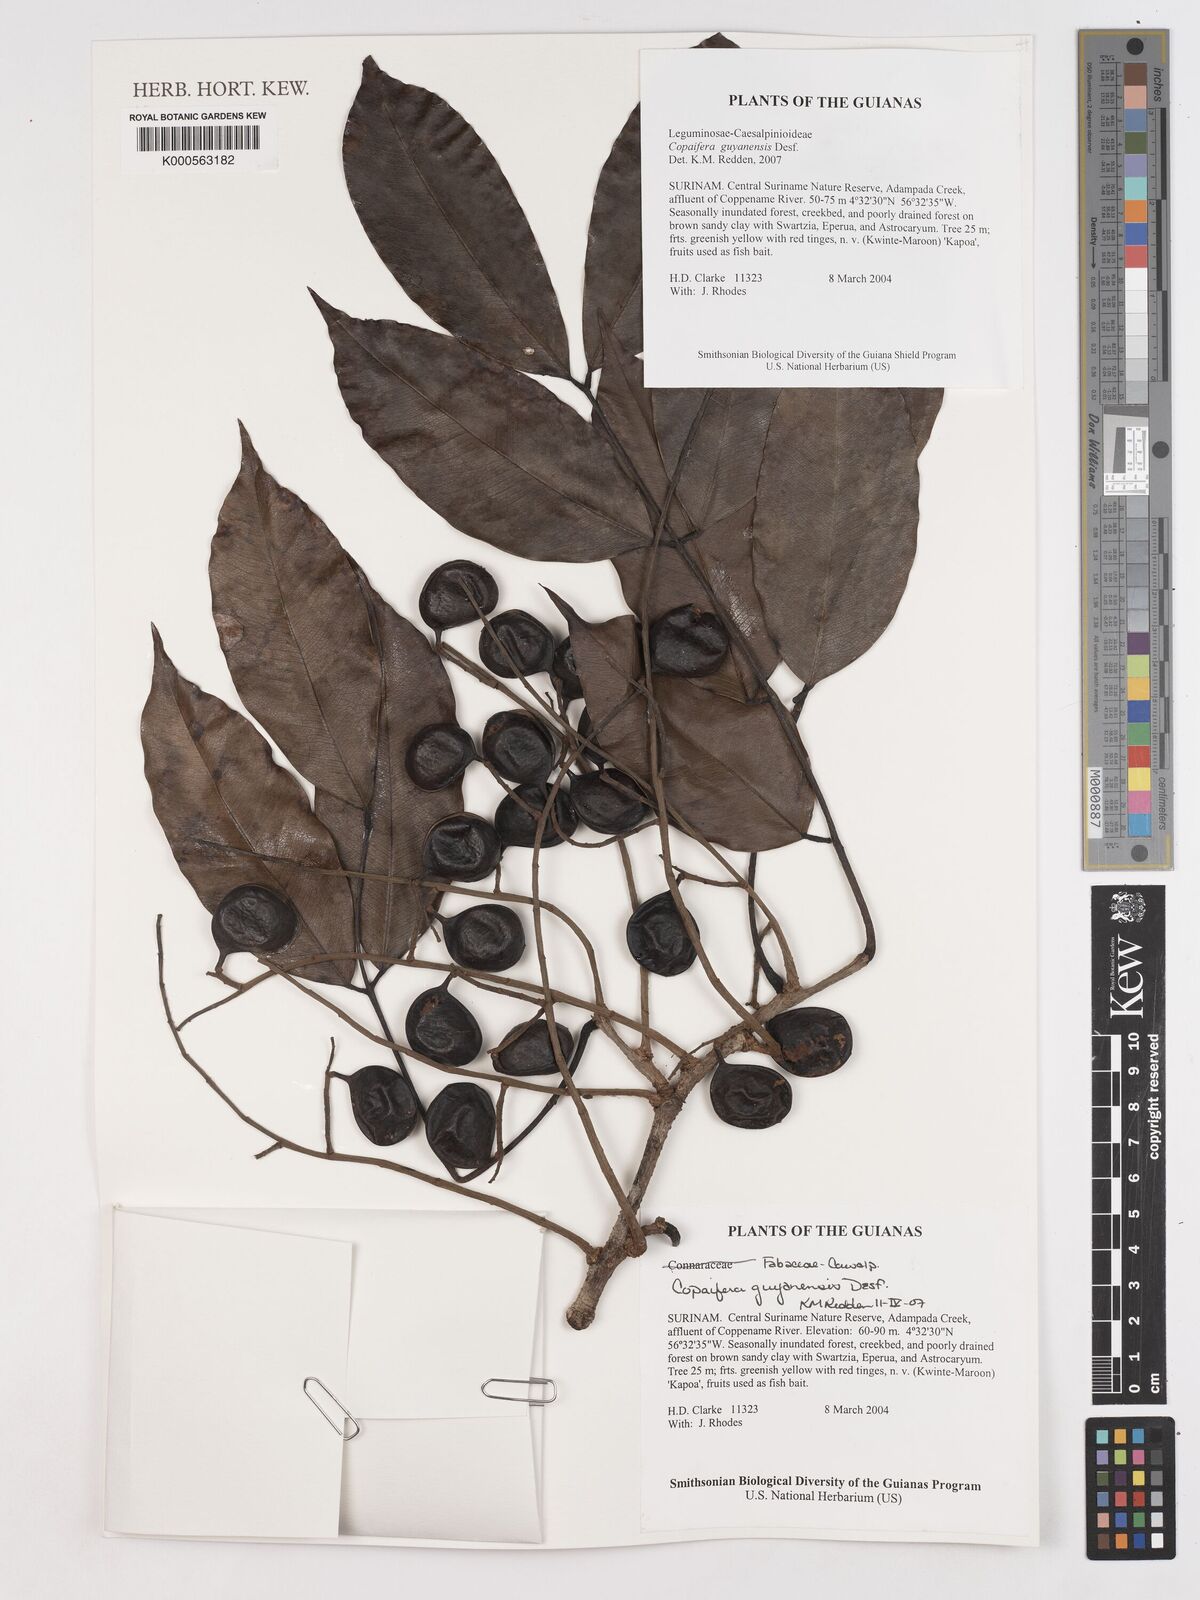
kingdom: Plantae
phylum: Tracheophyta
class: Magnoliopsida
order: Fabales
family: Fabaceae
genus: Copaifera
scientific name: Copaifera guianensis
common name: Copaiba
